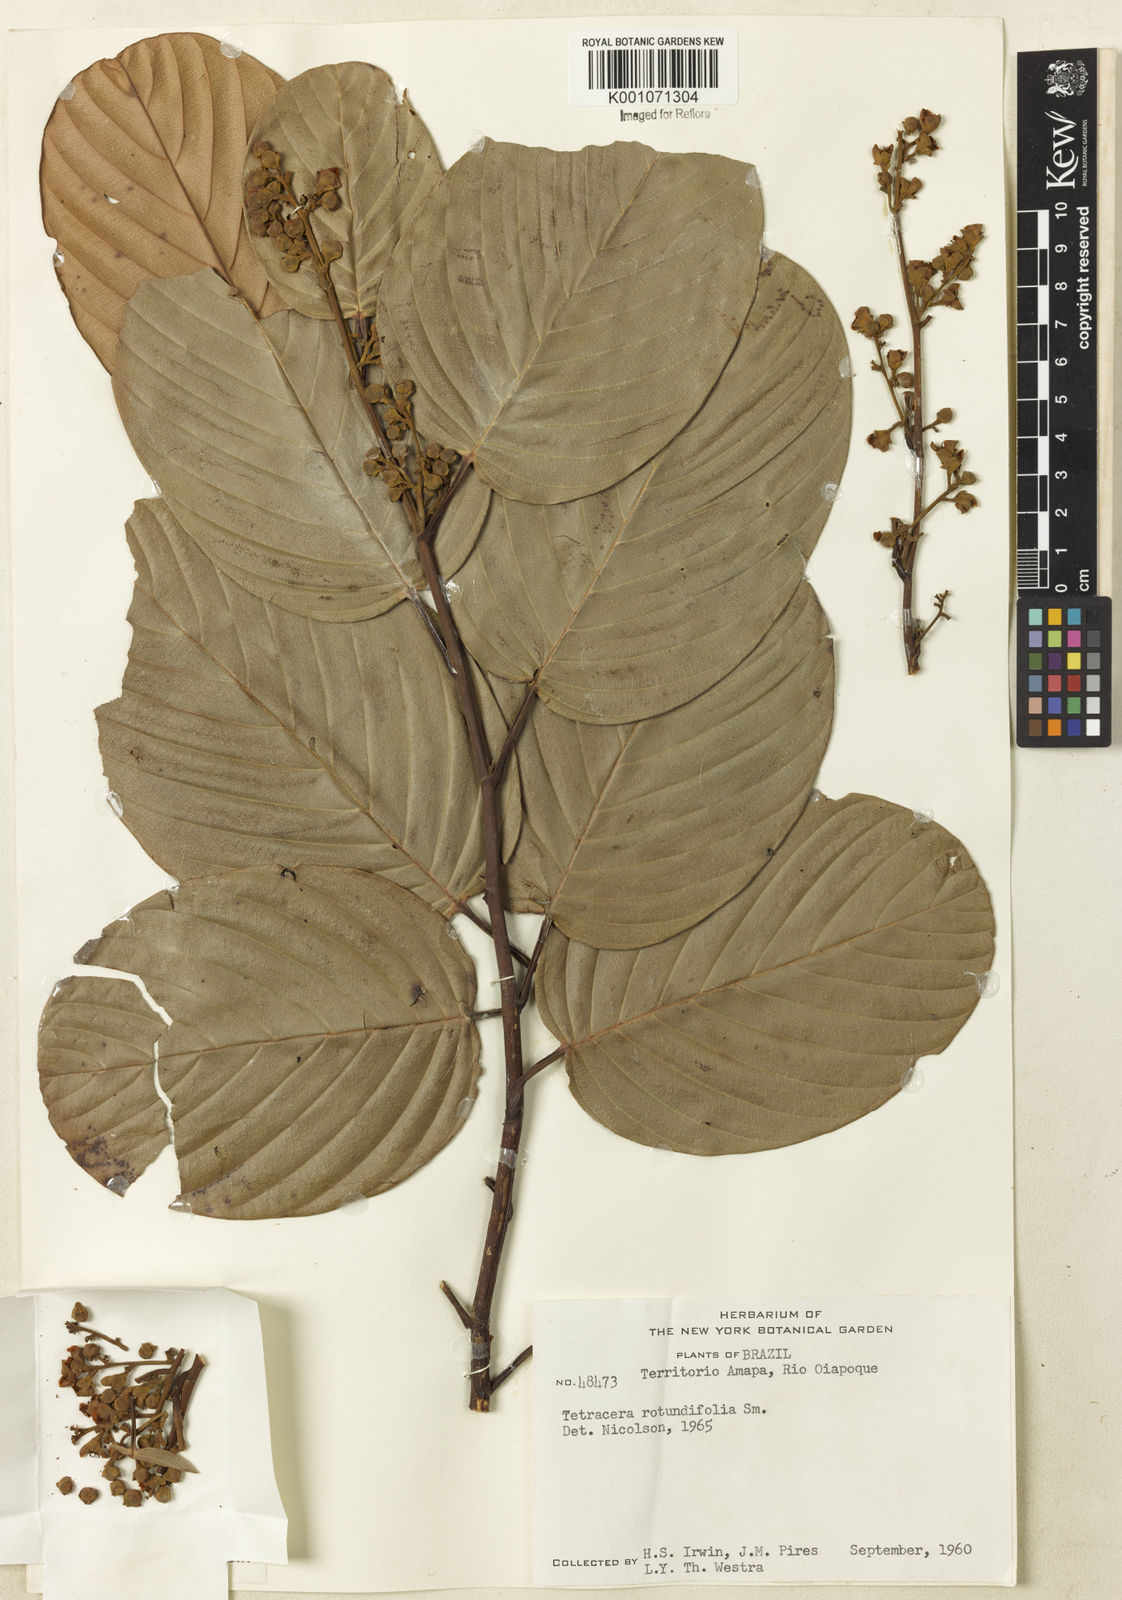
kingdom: Plantae
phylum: Tracheophyta
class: Magnoliopsida
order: Dilleniales
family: Dilleniaceae
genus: Tetracera
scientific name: Tetracera rotundifolia
